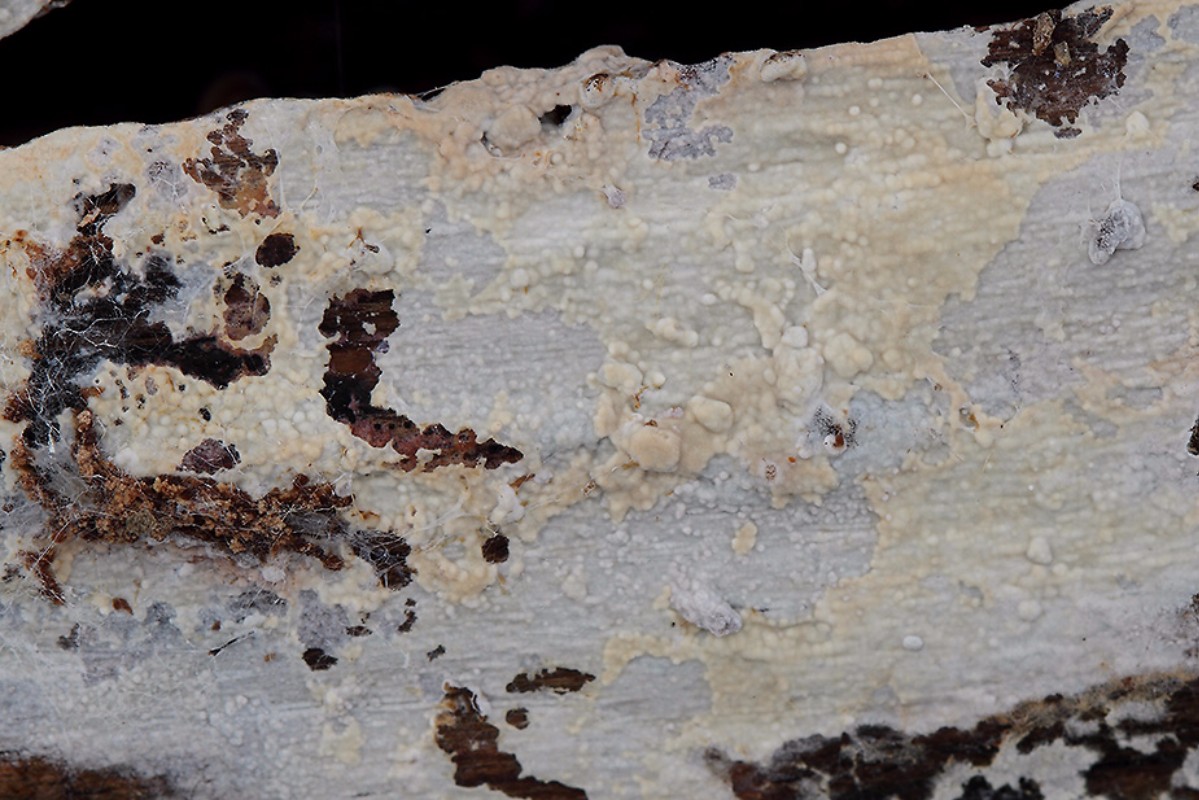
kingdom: Fungi
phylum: Basidiomycota
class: Agaricomycetes
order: Polyporales
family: Hyphodermataceae
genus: Hyphoderma
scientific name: Hyphoderma medioburiense
